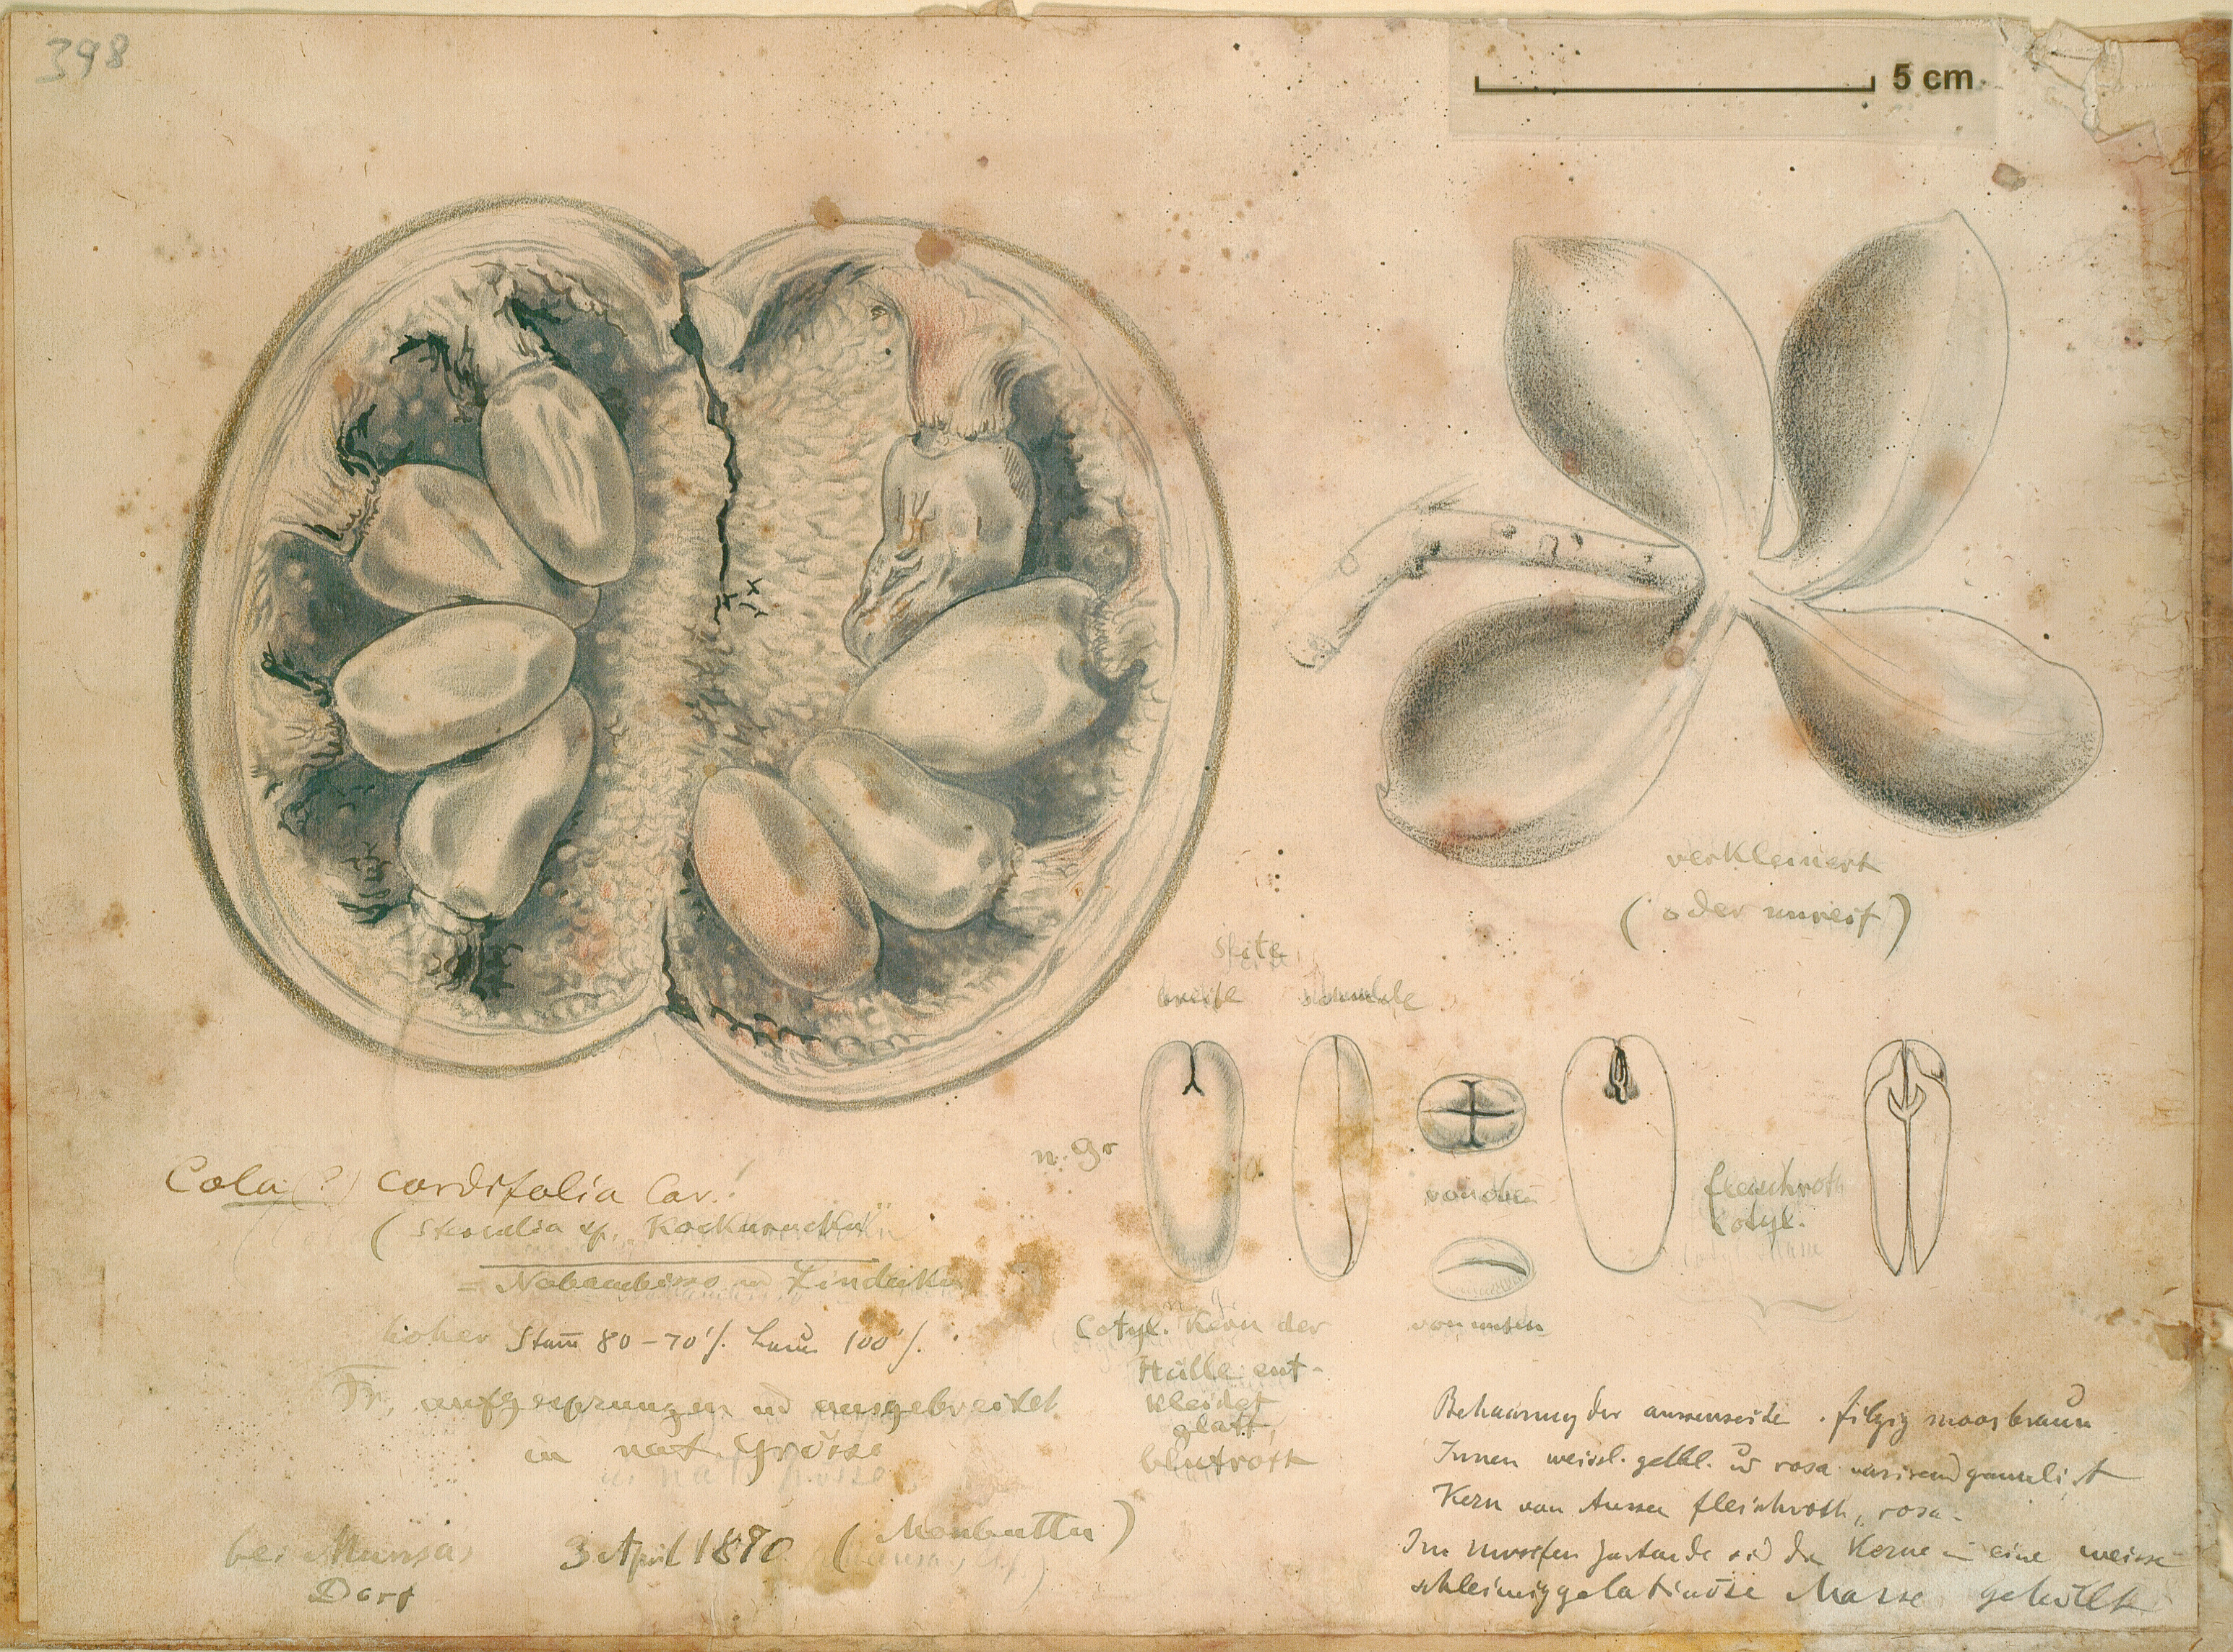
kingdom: Plantae
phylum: Tracheophyta
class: Magnoliopsida
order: Malvales
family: Malvaceae
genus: Cola
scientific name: Cola cordifolia
